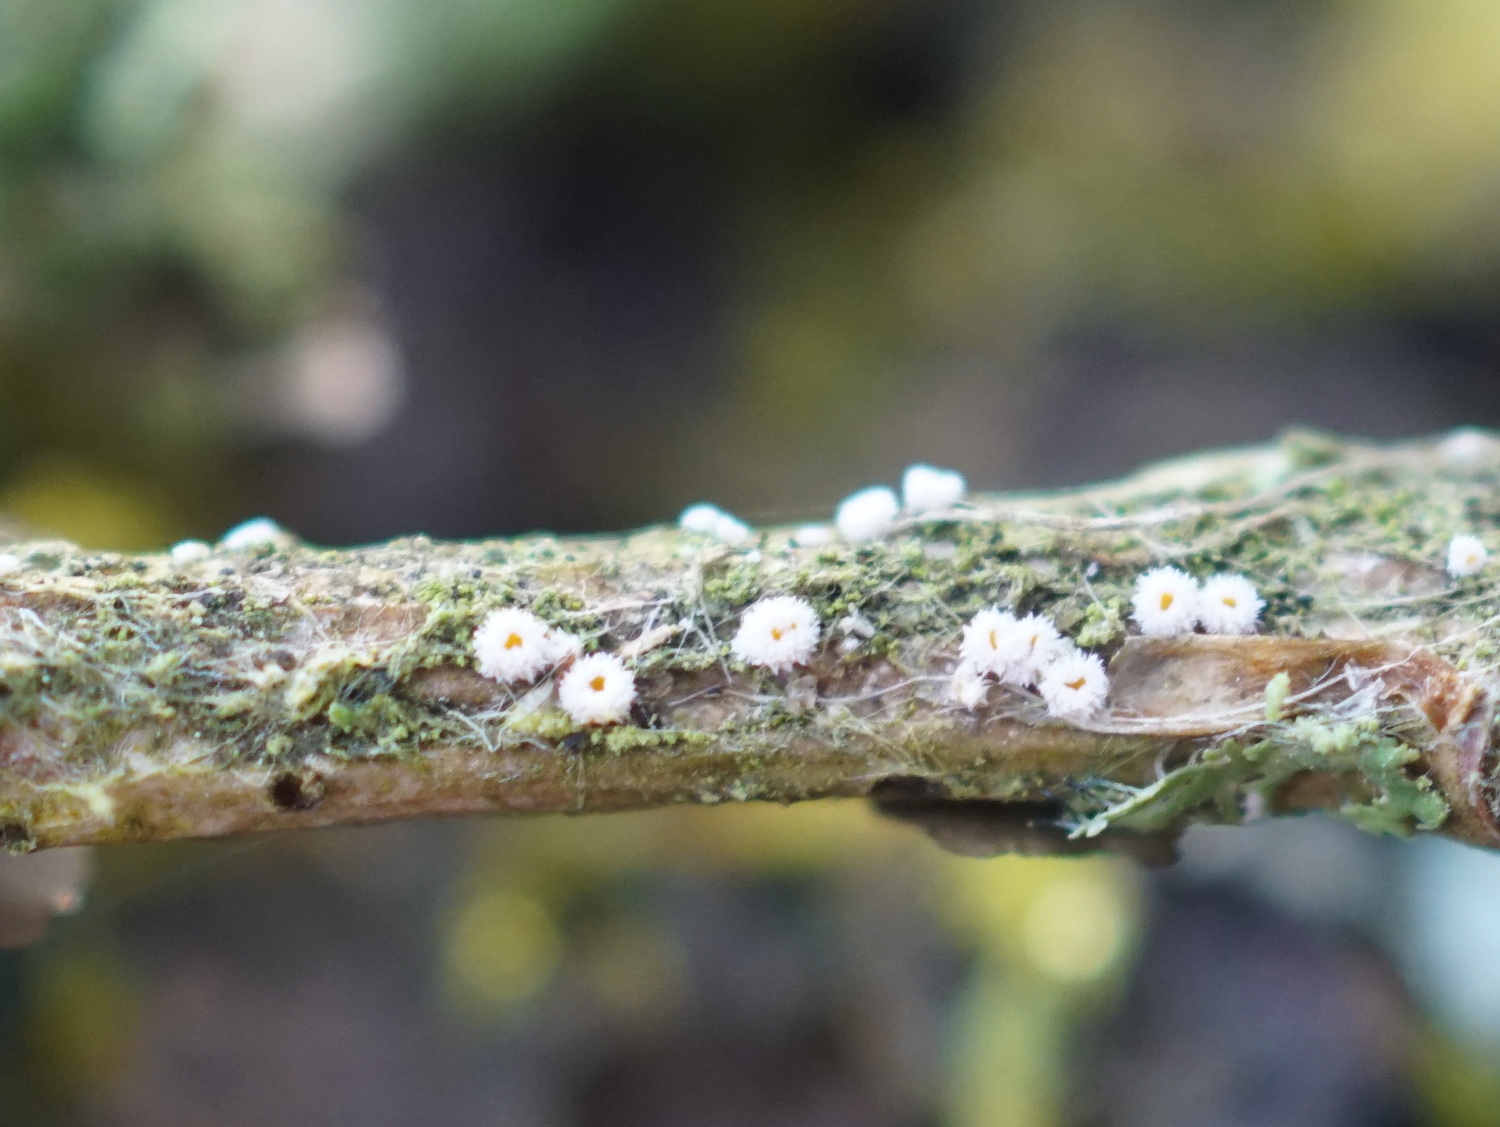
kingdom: Fungi
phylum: Ascomycota
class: Leotiomycetes
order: Helotiales
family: Lachnaceae
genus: Capitotricha
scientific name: Capitotricha bicolor
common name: prægtig frynseskive
